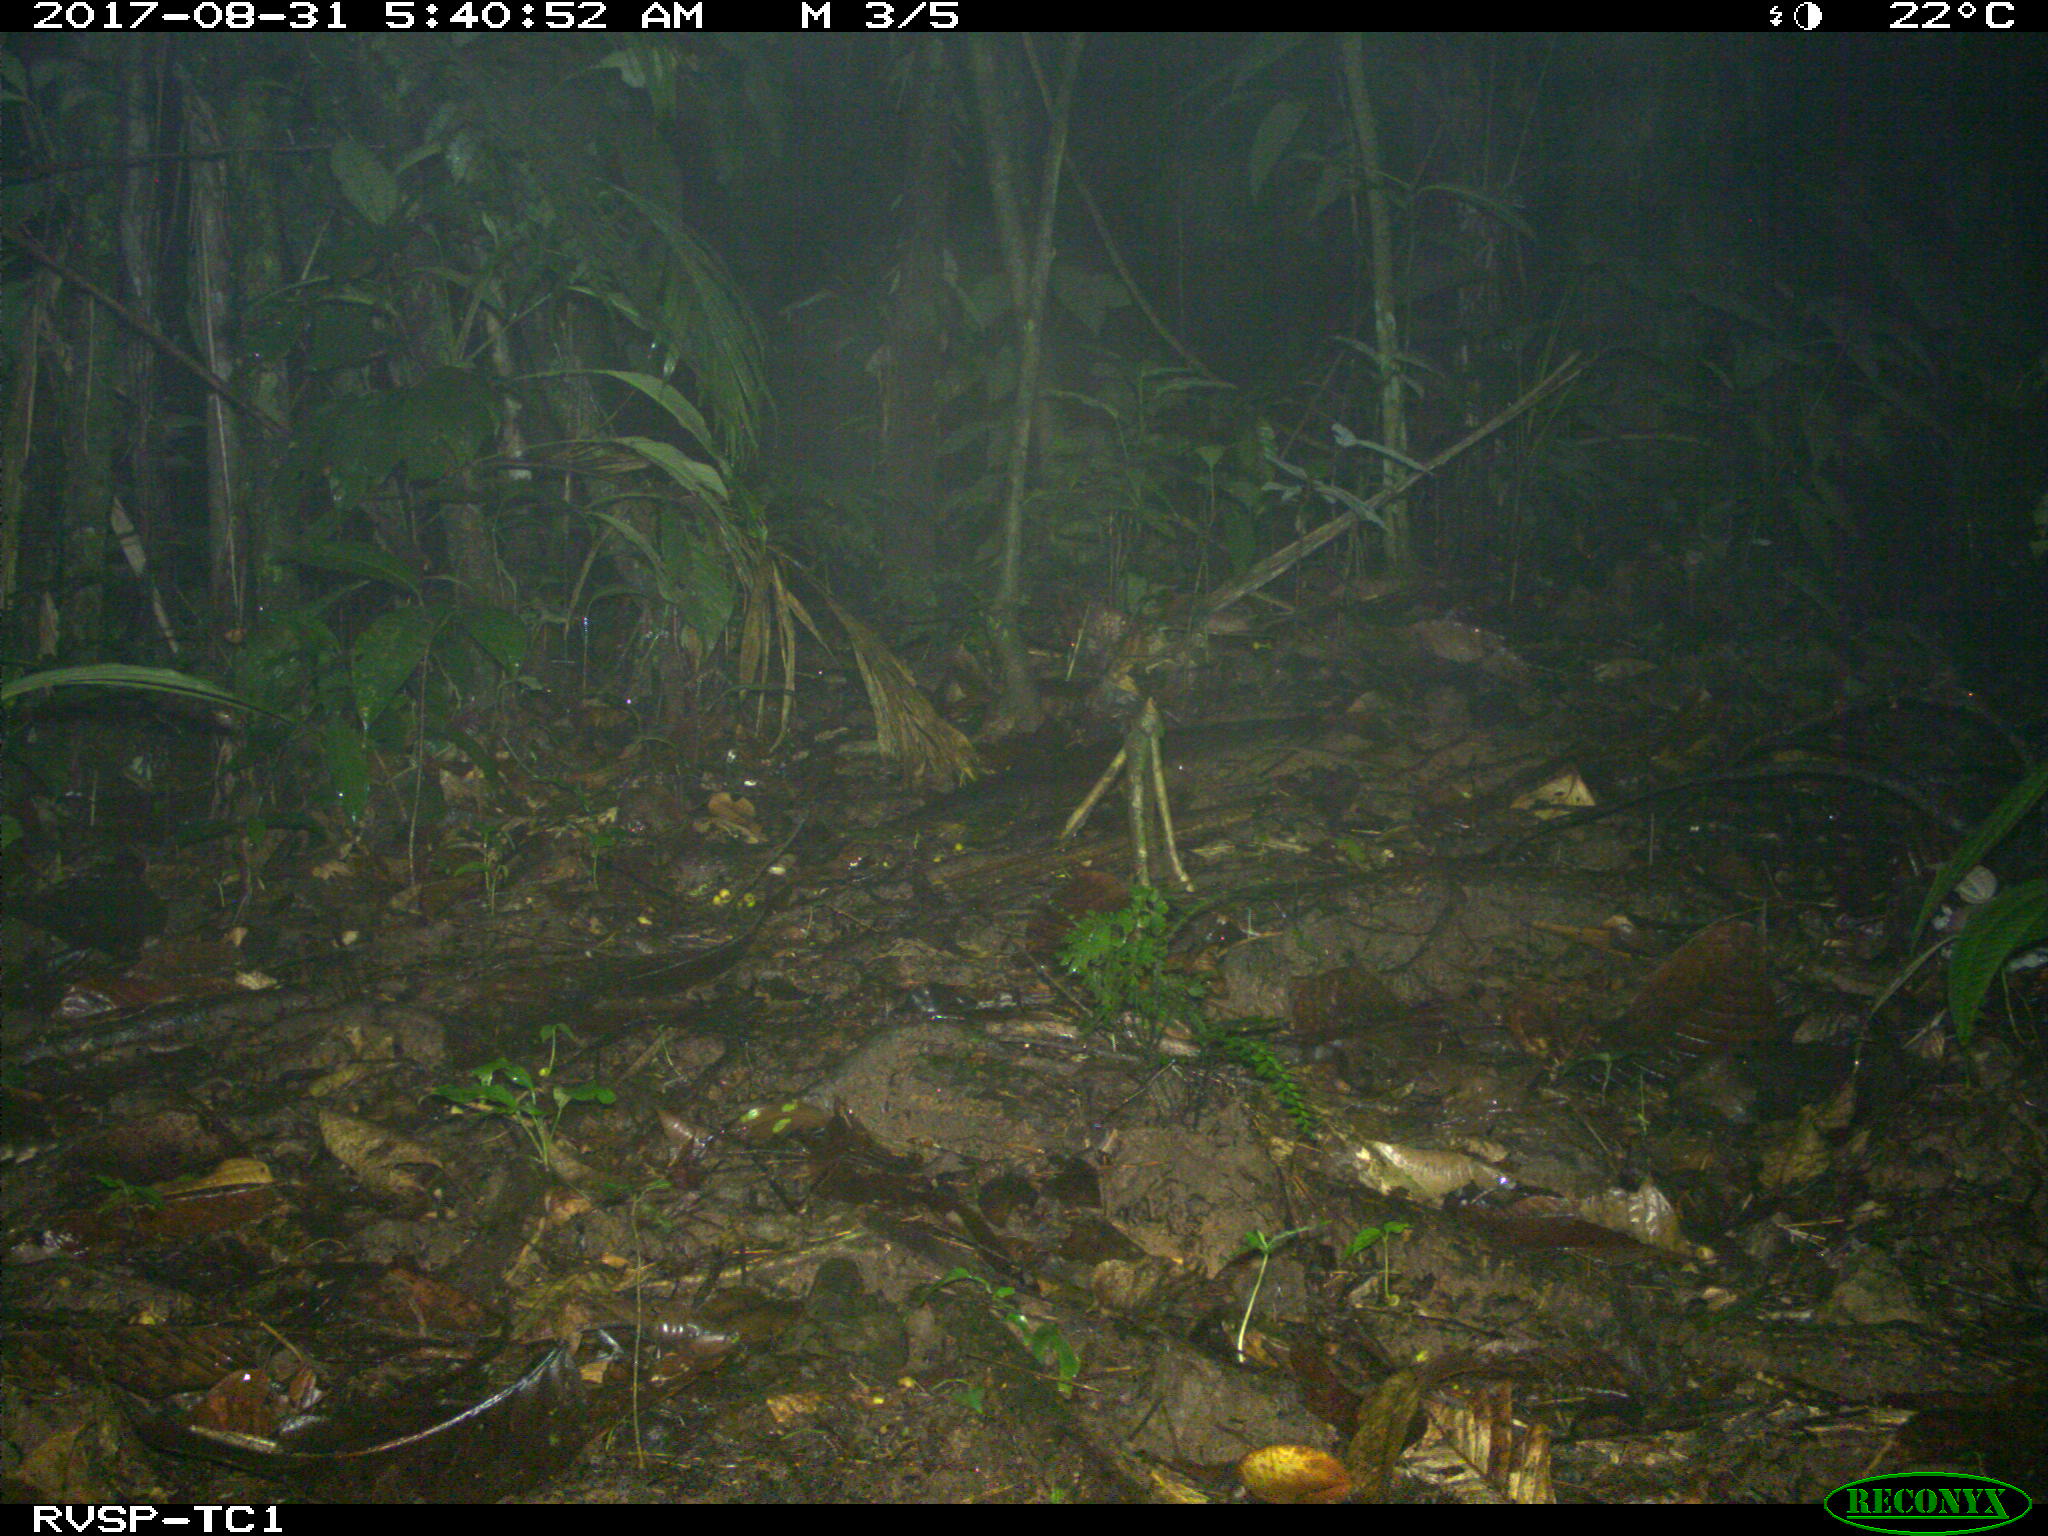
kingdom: Animalia
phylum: Chordata
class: Mammalia
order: Cingulata
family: Dasypodidae
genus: Dasypus
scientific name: Dasypus novemcinctus
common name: Nine-banded armadillo
